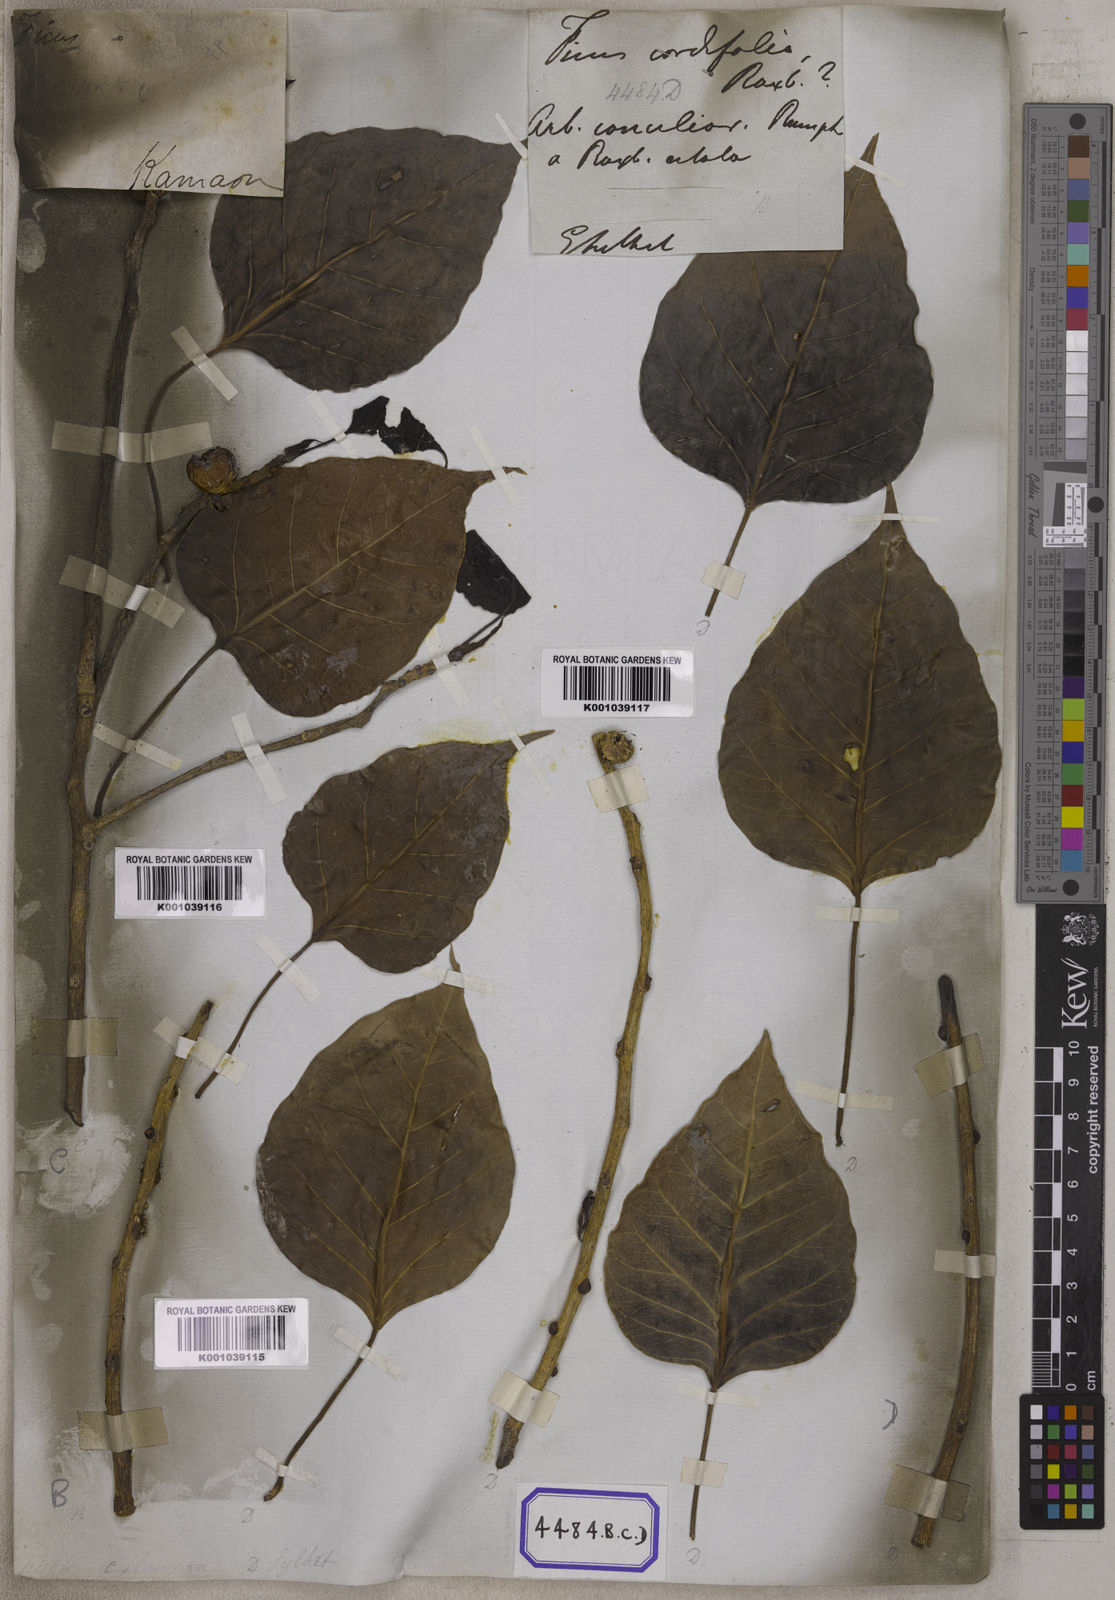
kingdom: Plantae
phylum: Tracheophyta
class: Magnoliopsida
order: Rosales
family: Moraceae
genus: Ficus
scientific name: Ficus rumphii
